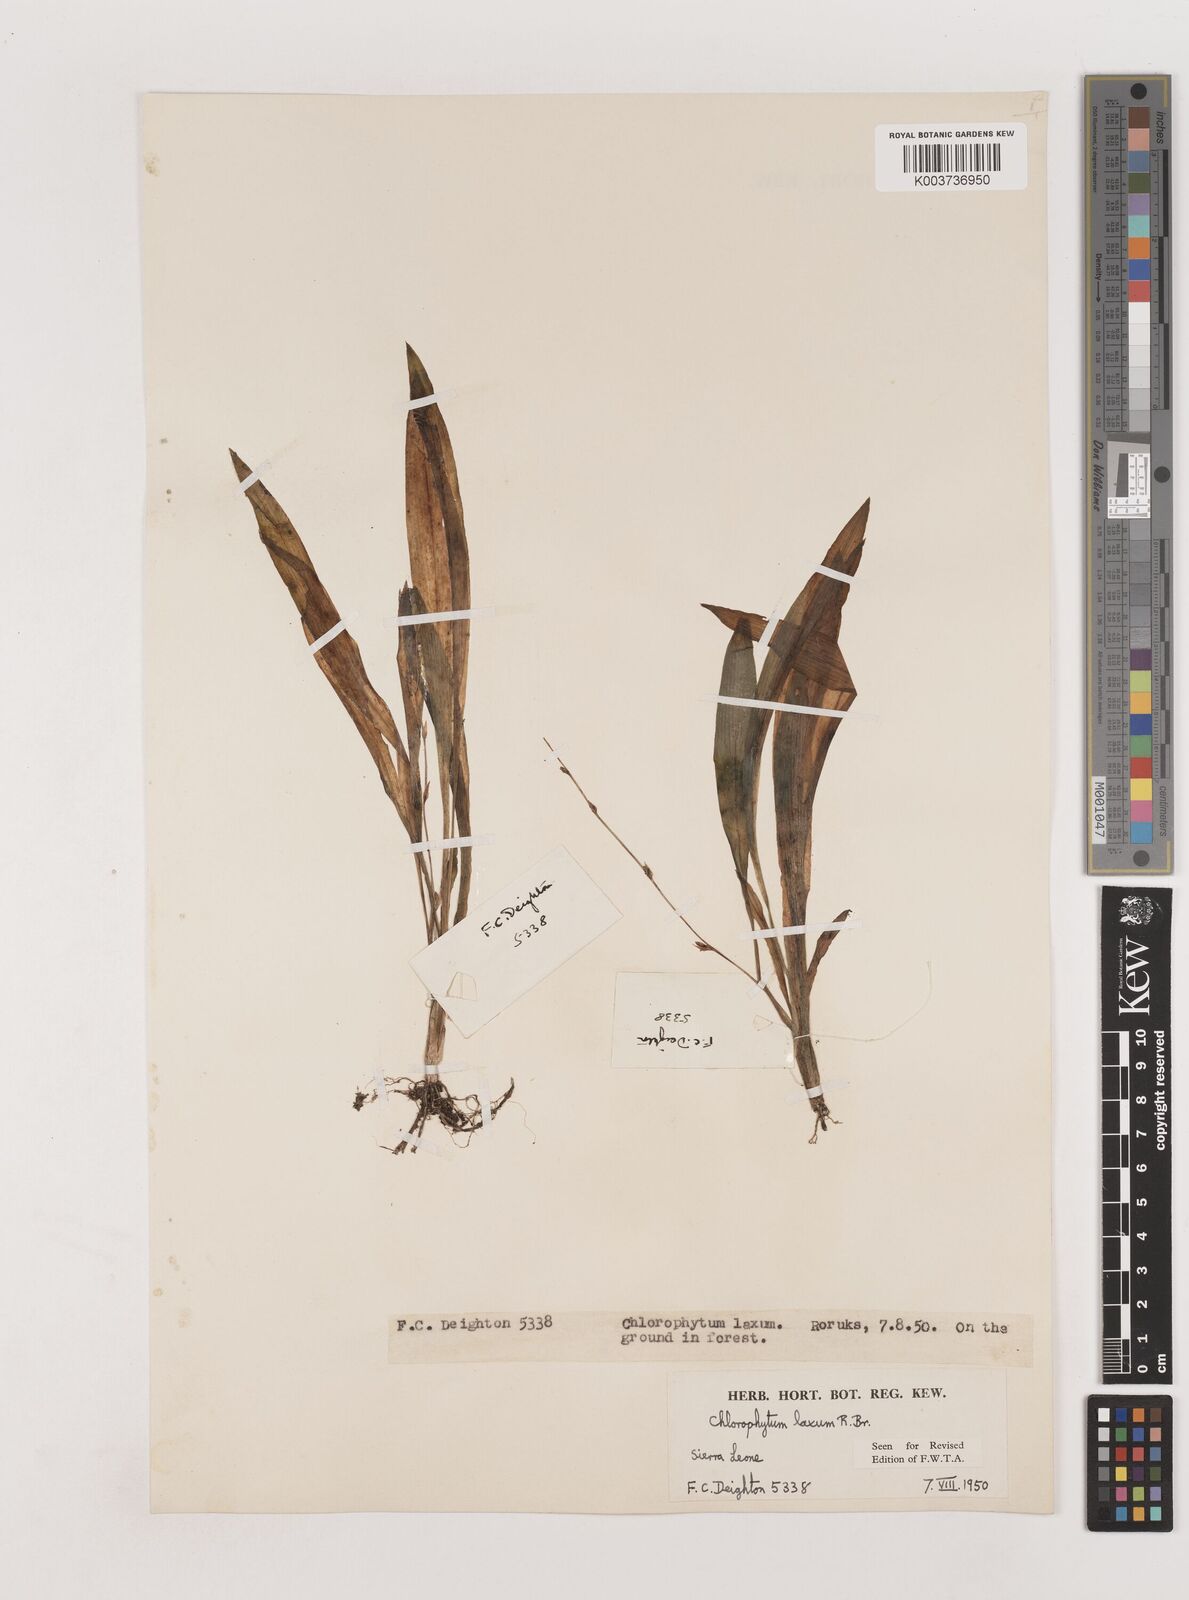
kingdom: Plantae
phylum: Tracheophyta
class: Liliopsida
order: Asparagales
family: Asparagaceae
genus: Chlorophytum
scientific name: Chlorophytum laxum
